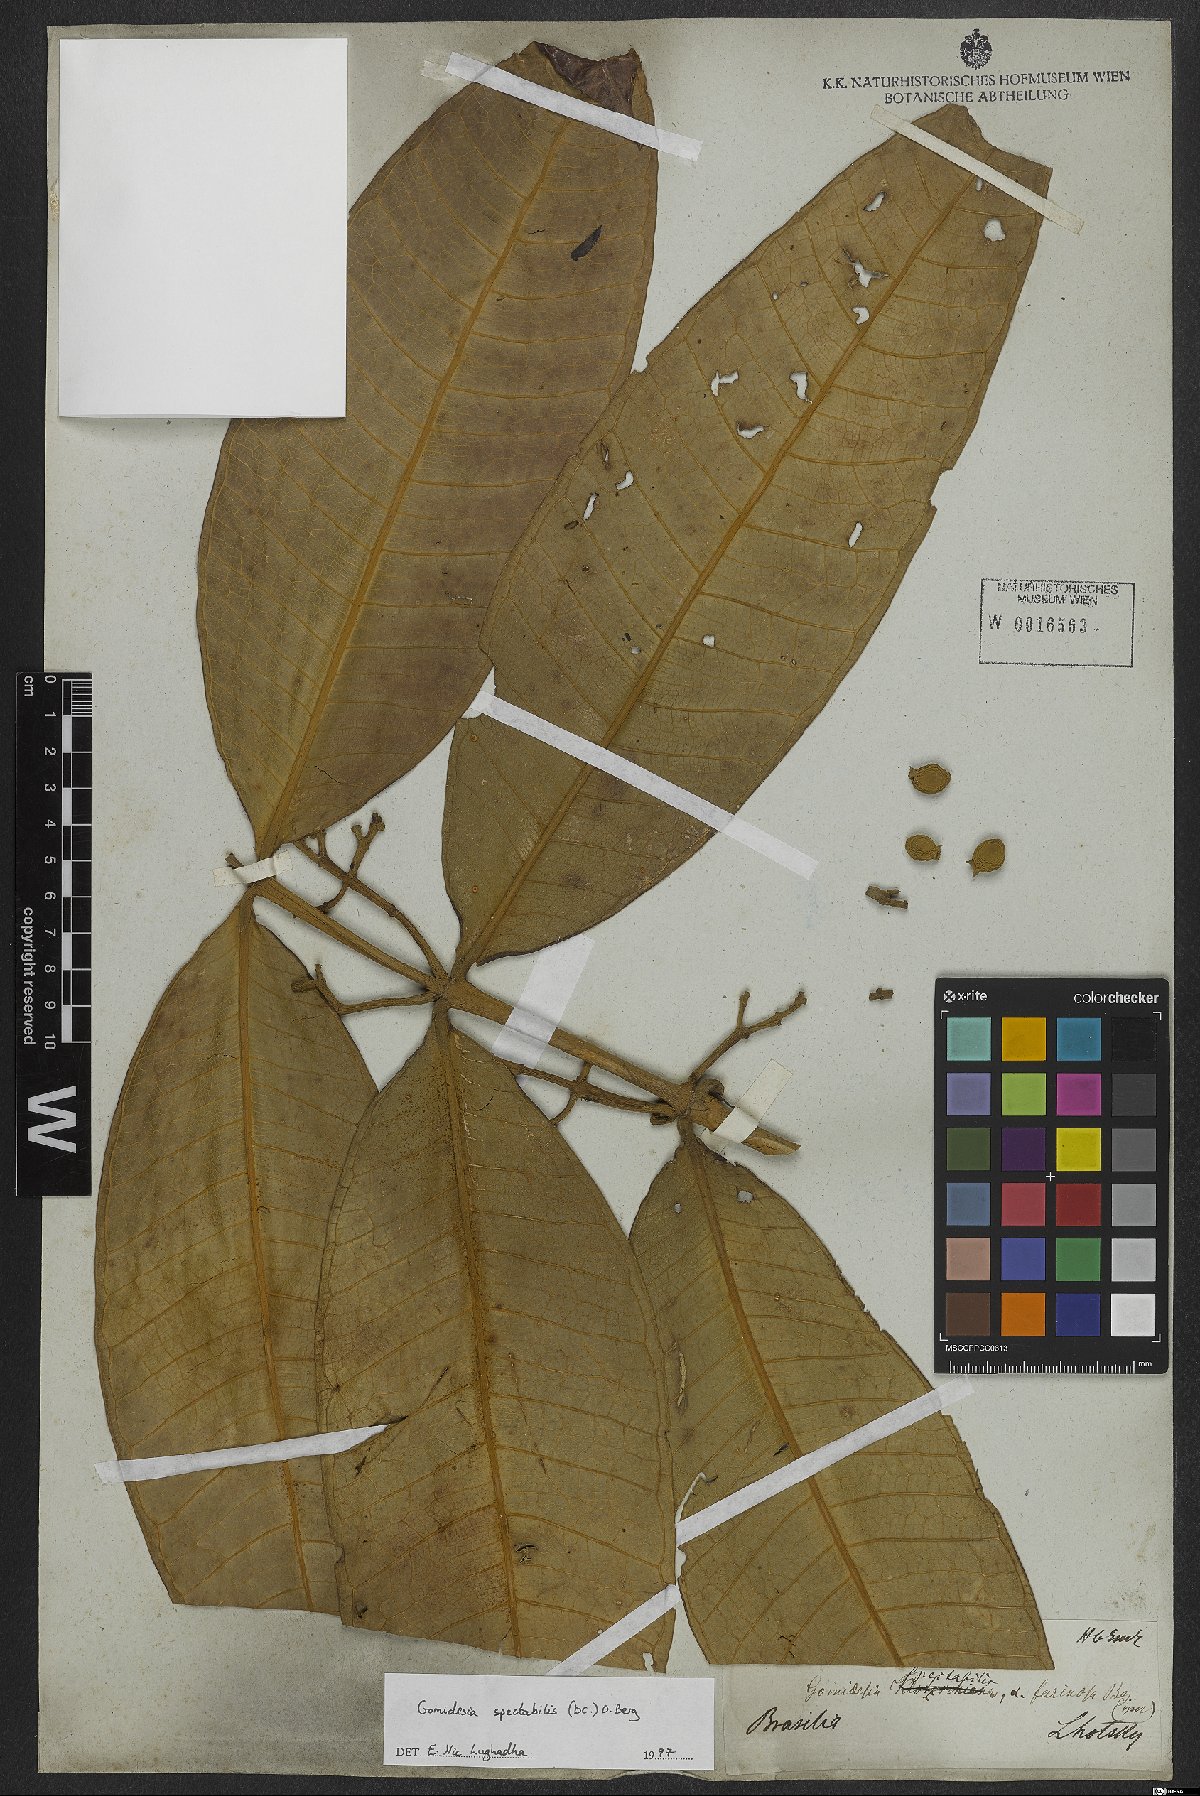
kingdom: Plantae
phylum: Tracheophyta
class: Magnoliopsida
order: Myrtales
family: Myrtaceae
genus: Myrcia
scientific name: Myrcia spectabilis
